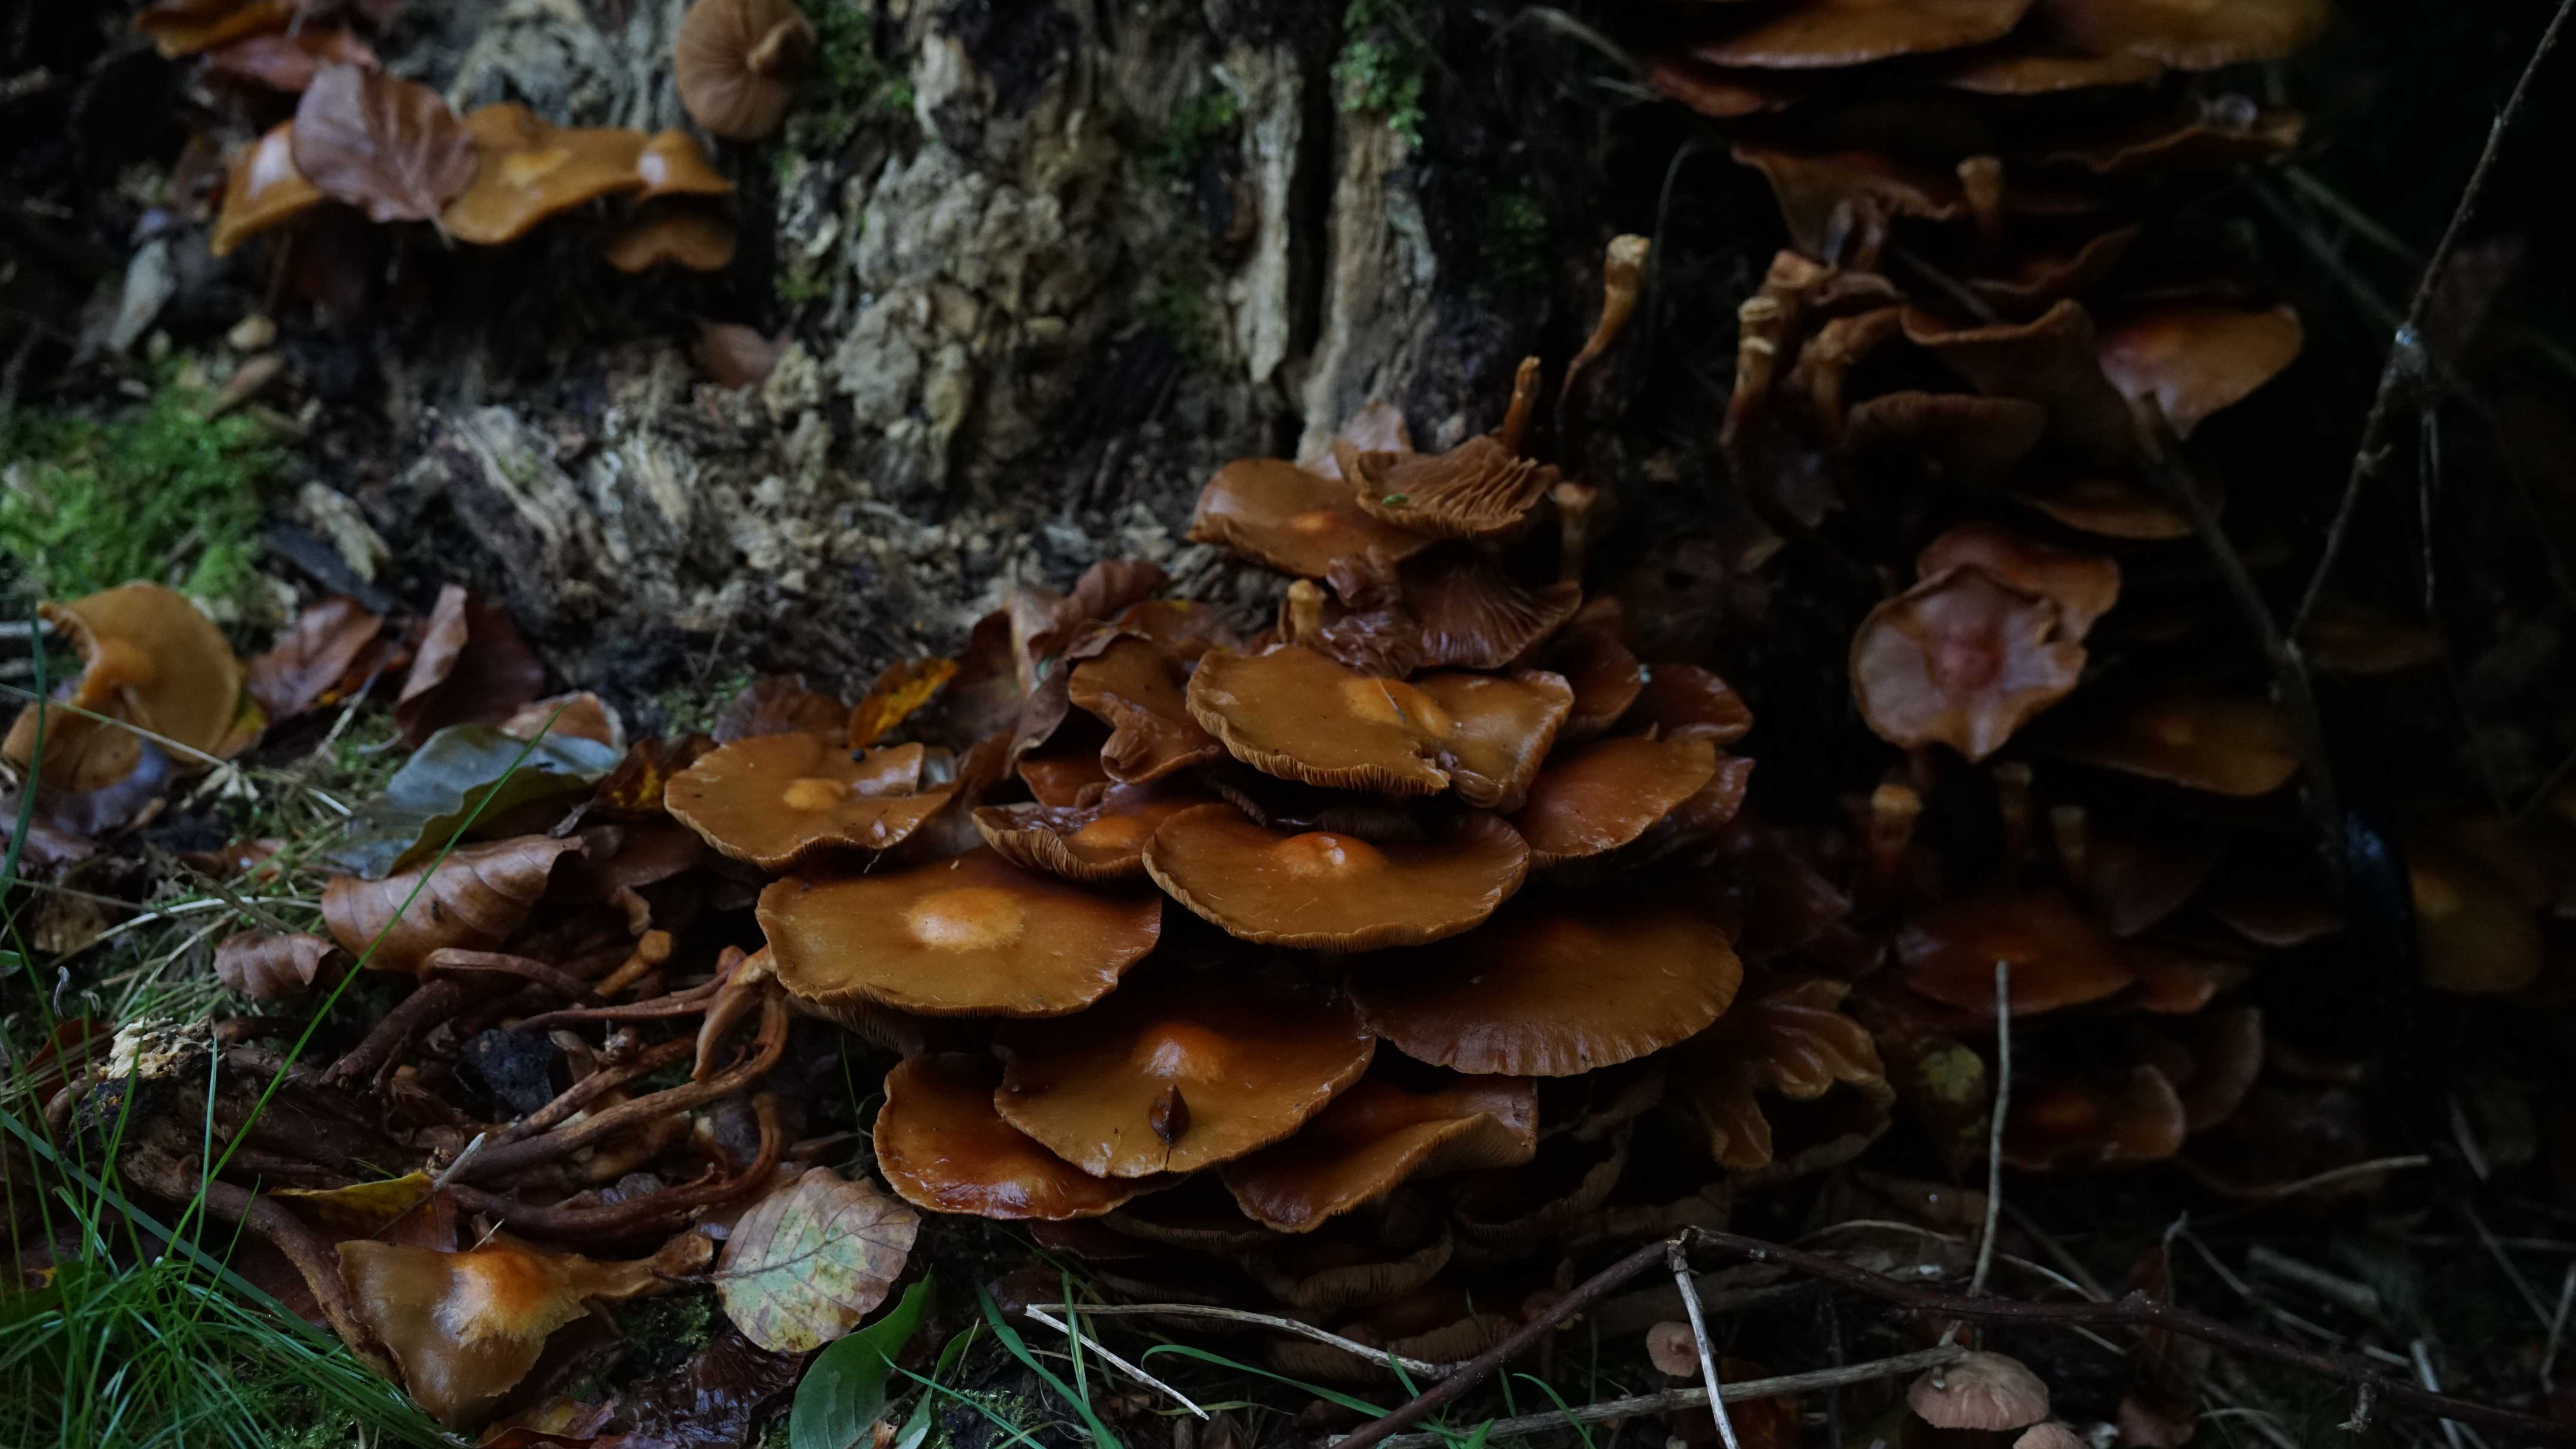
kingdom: Fungi
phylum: Basidiomycota
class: Agaricomycetes
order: Agaricales
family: Strophariaceae
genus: Kuehneromyces
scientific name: Kuehneromyces mutabilis
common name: foranderlig skælhat
